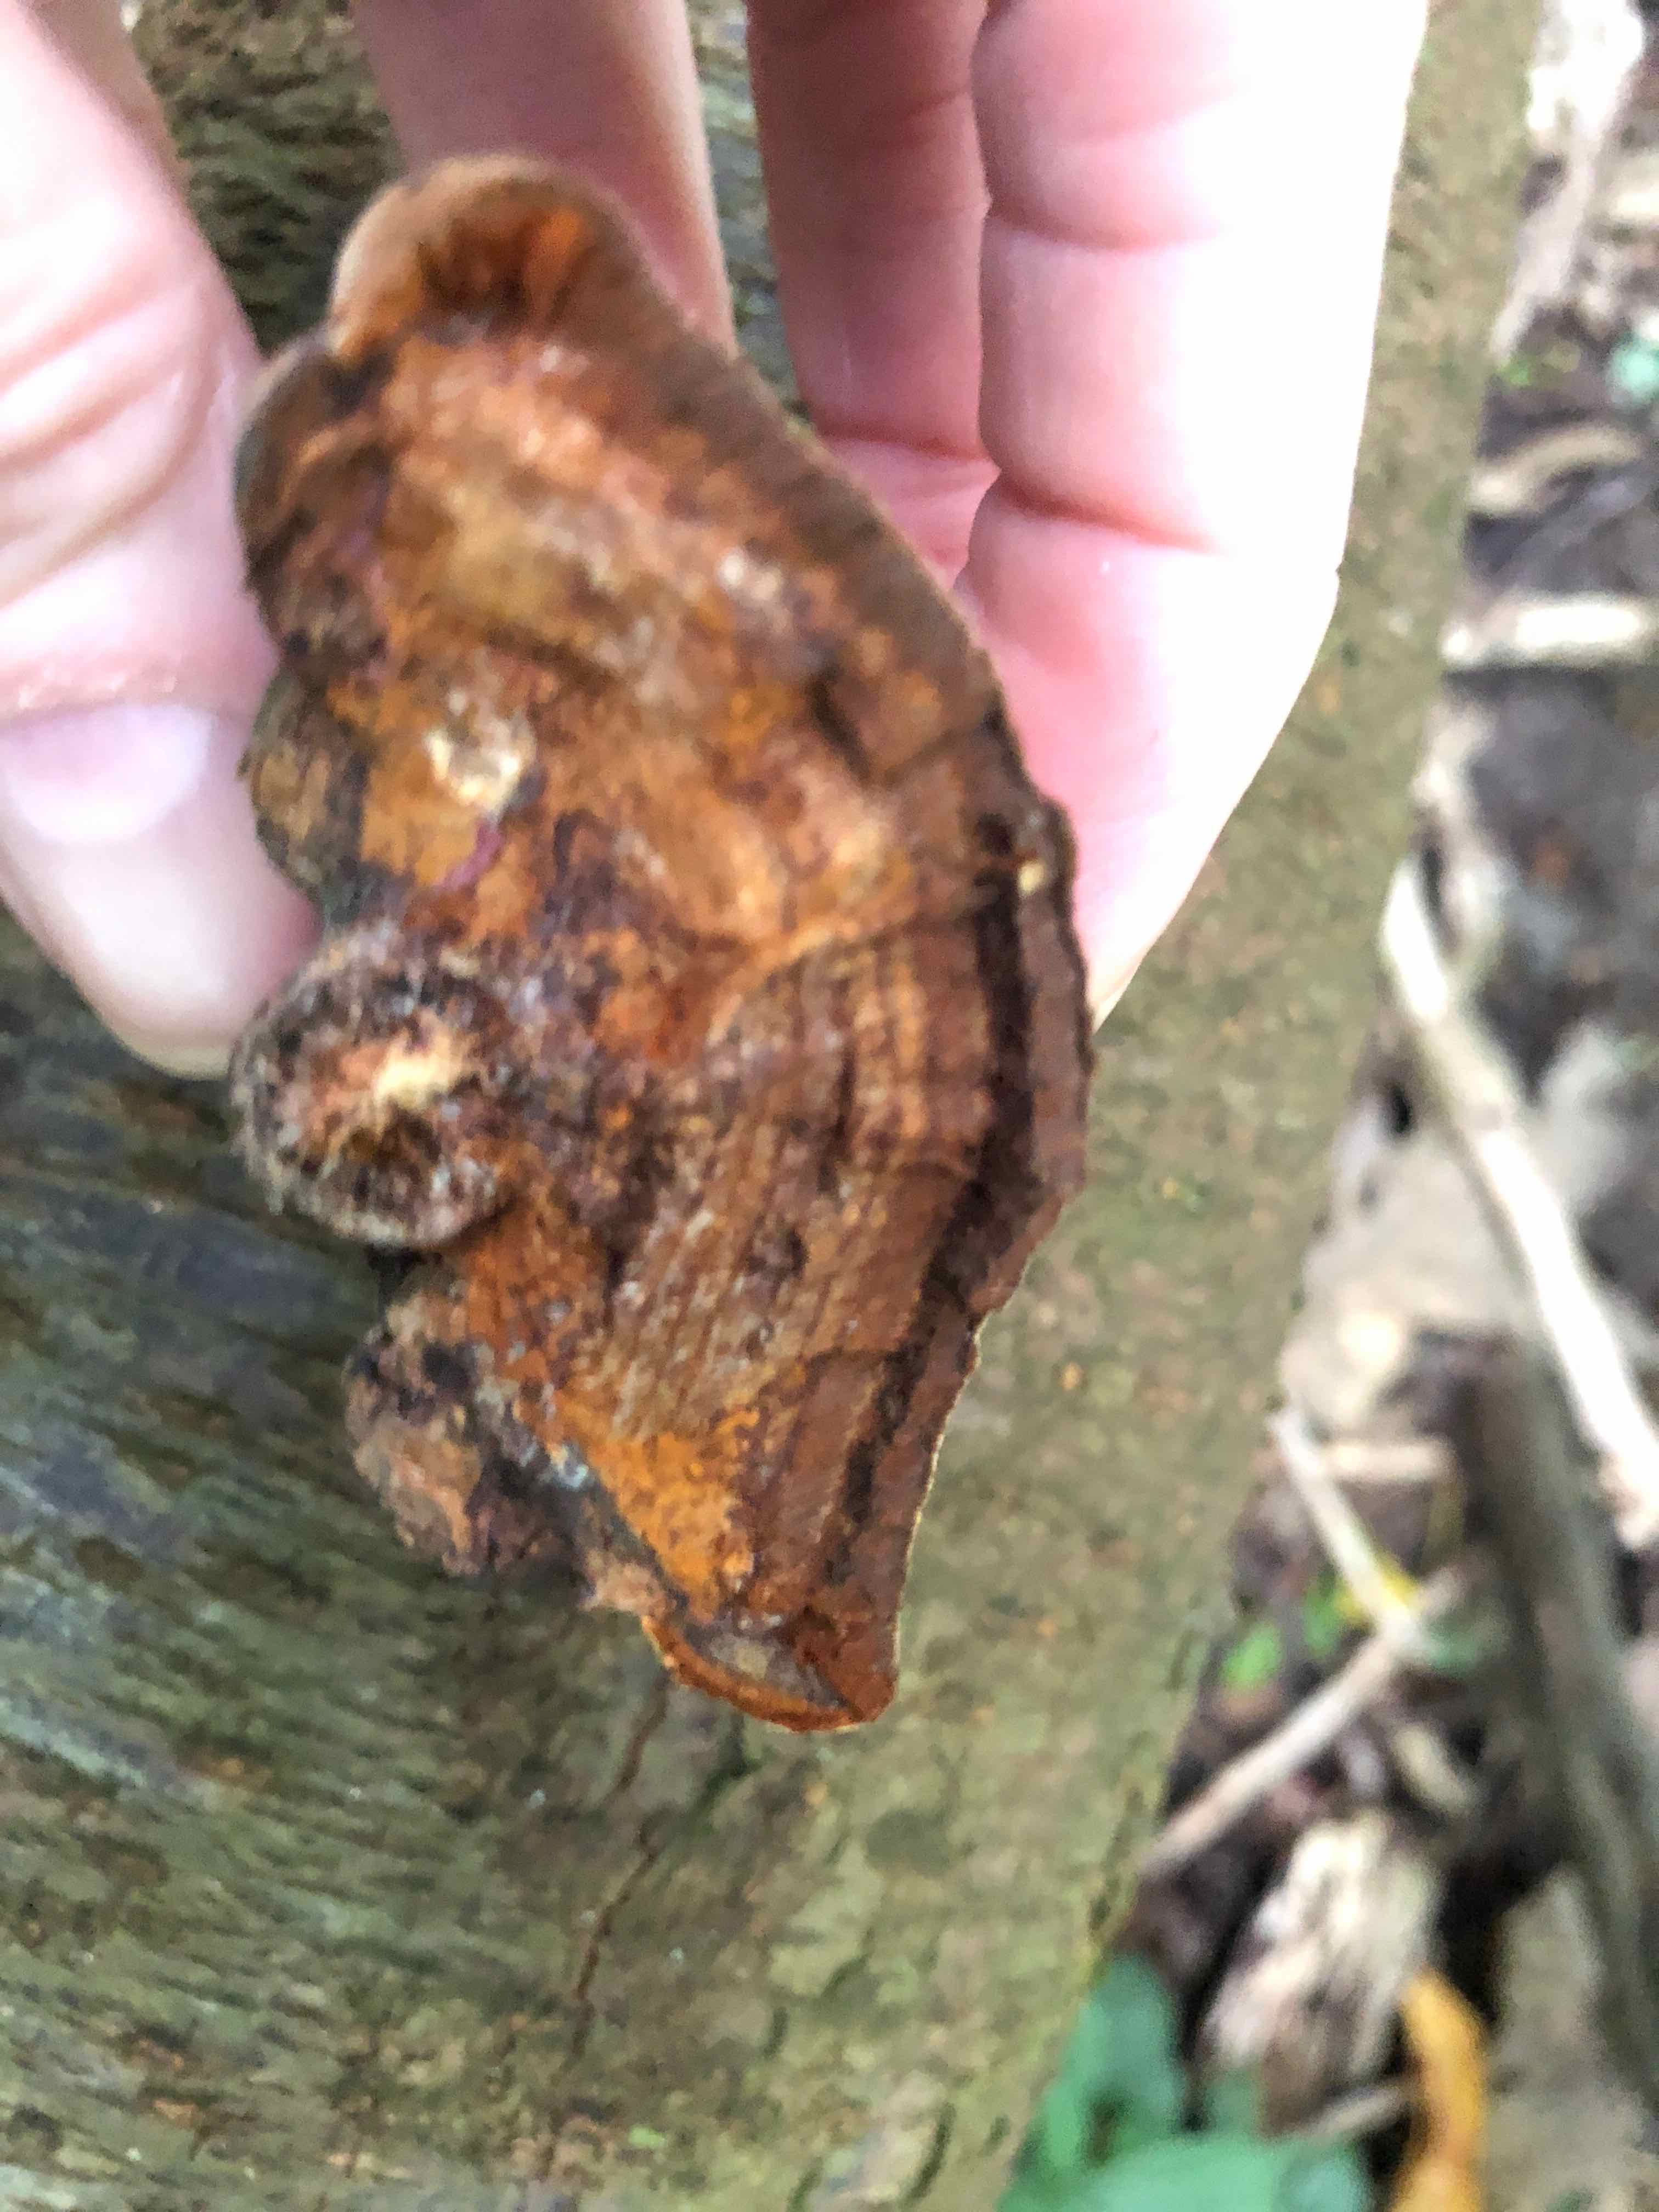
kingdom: Fungi
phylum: Basidiomycota
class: Agaricomycetes
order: Hymenochaetales
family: Hymenochaetaceae
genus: Phellinus
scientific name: Phellinus pomaceus
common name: blomme-ildporesvamp
